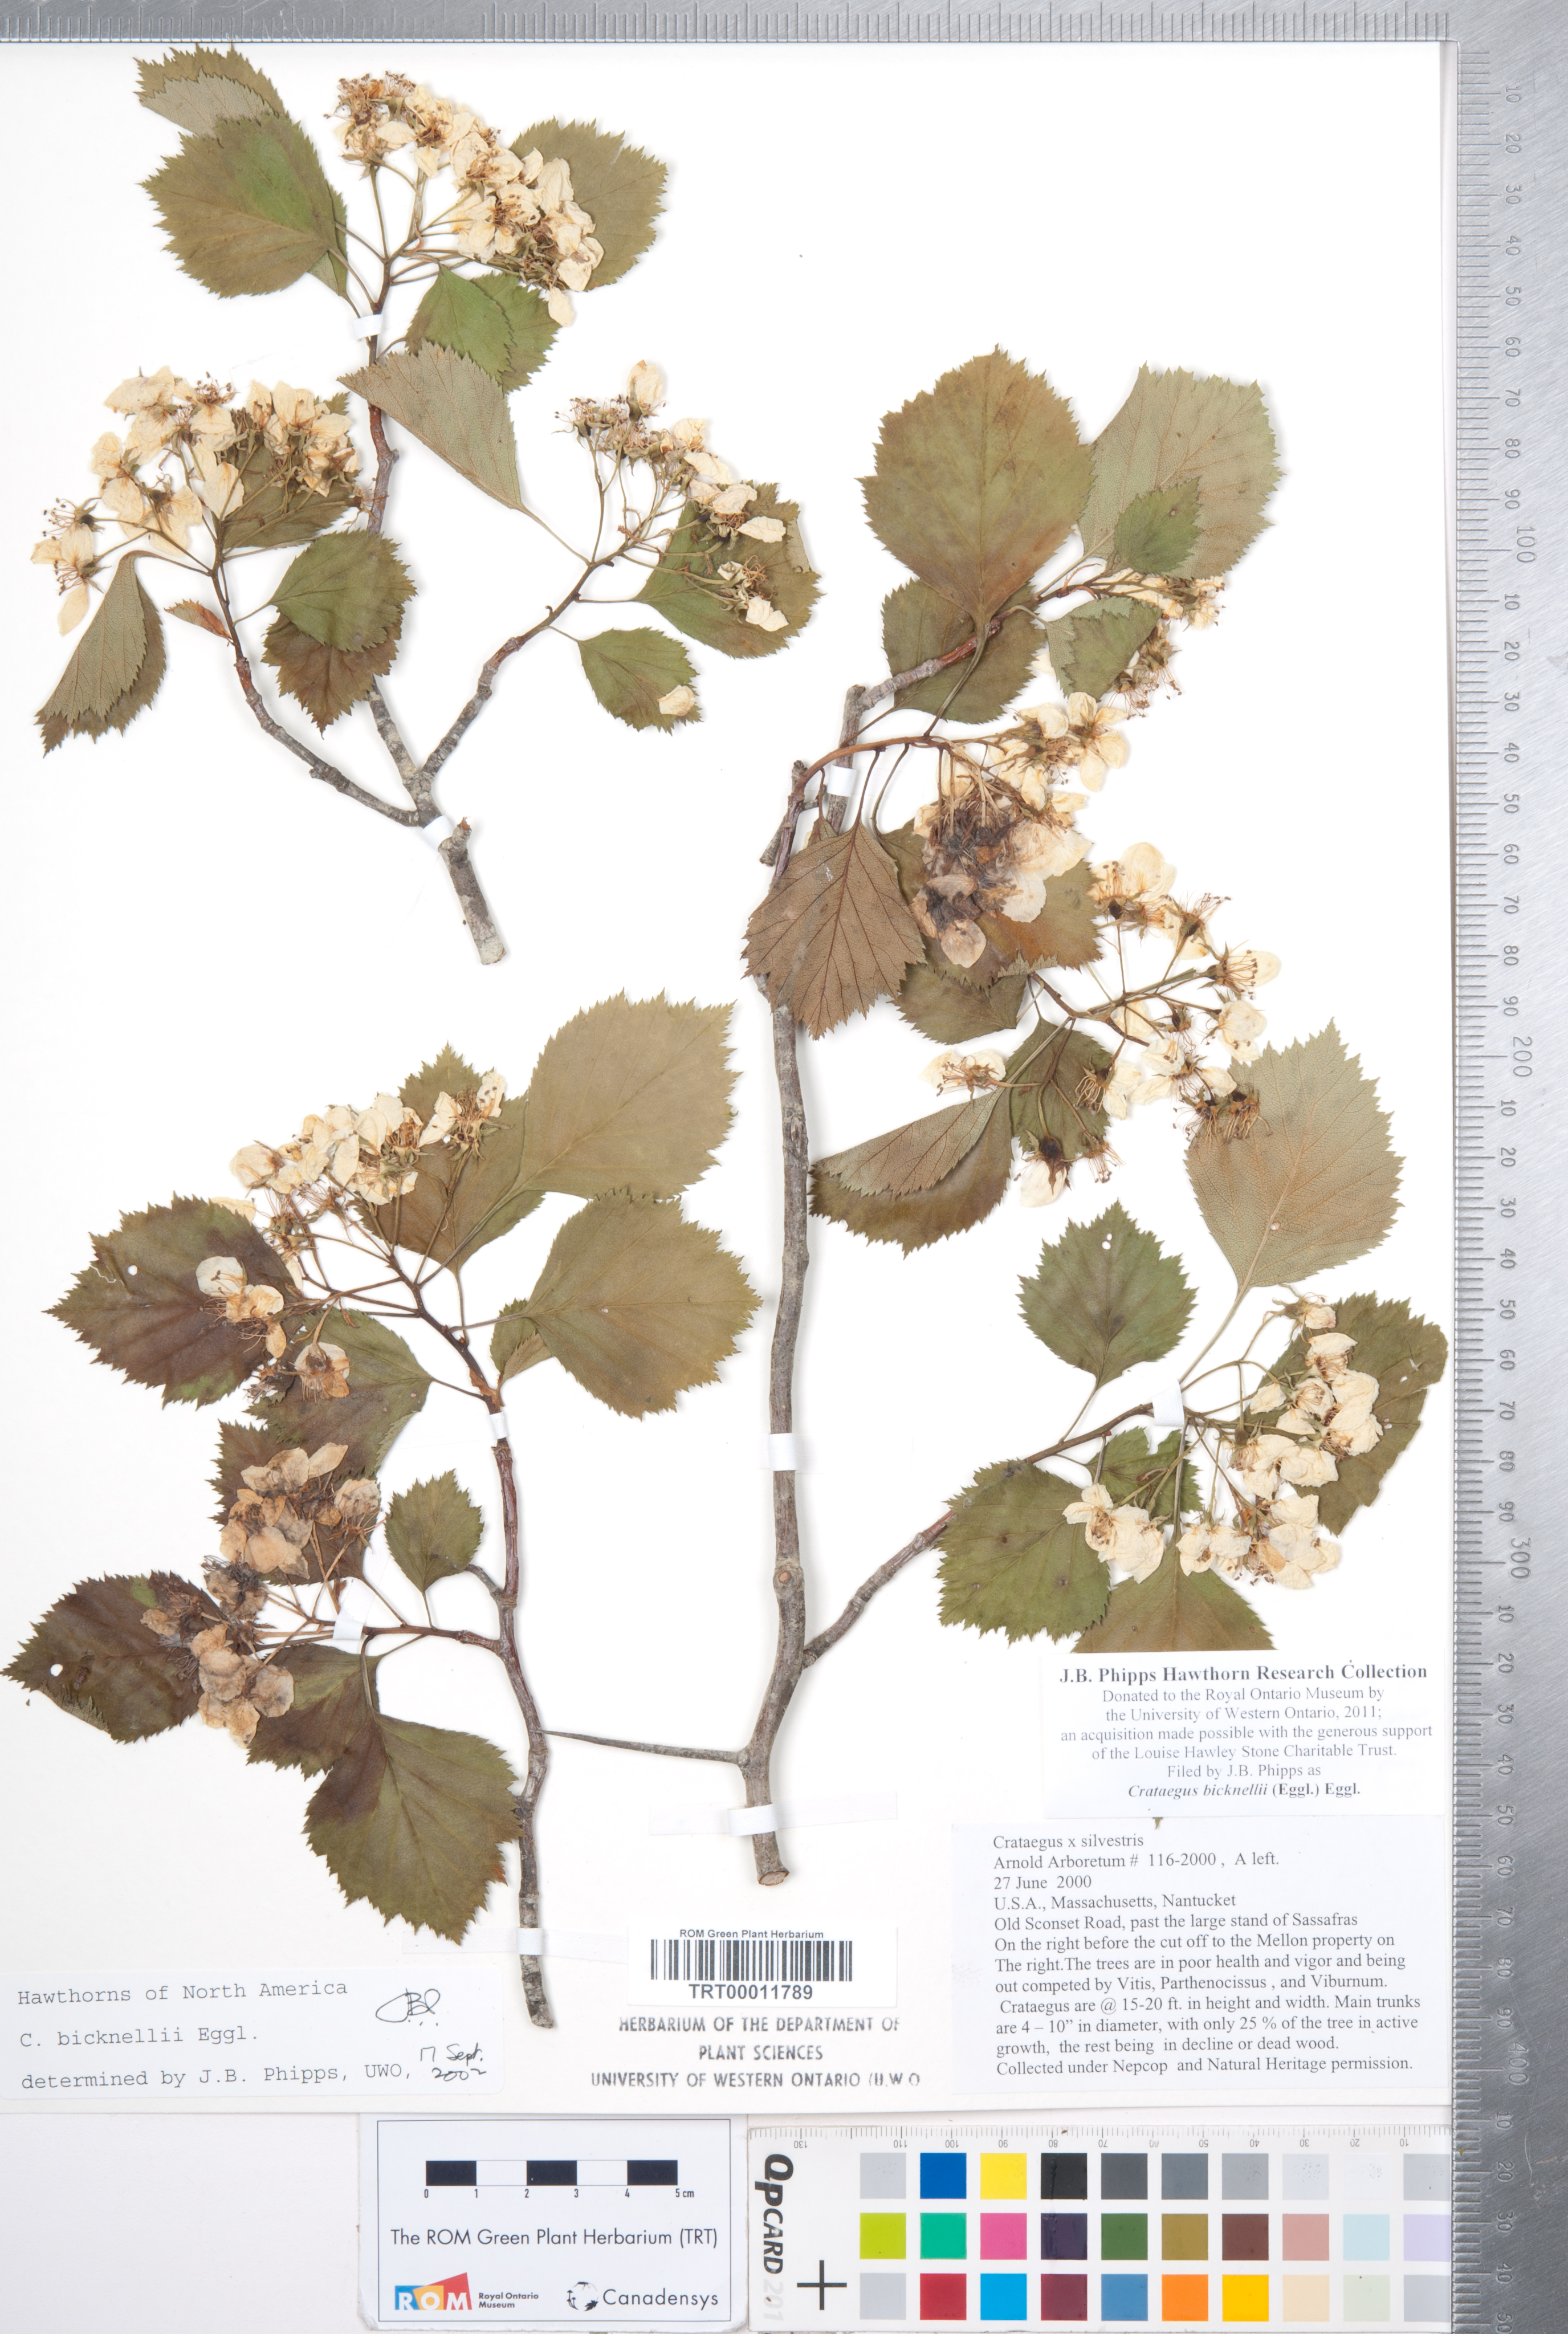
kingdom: Plantae
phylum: Tracheophyta
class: Magnoliopsida
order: Rosales
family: Rosaceae
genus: Crataegus
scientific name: Crataegus bicknellii
